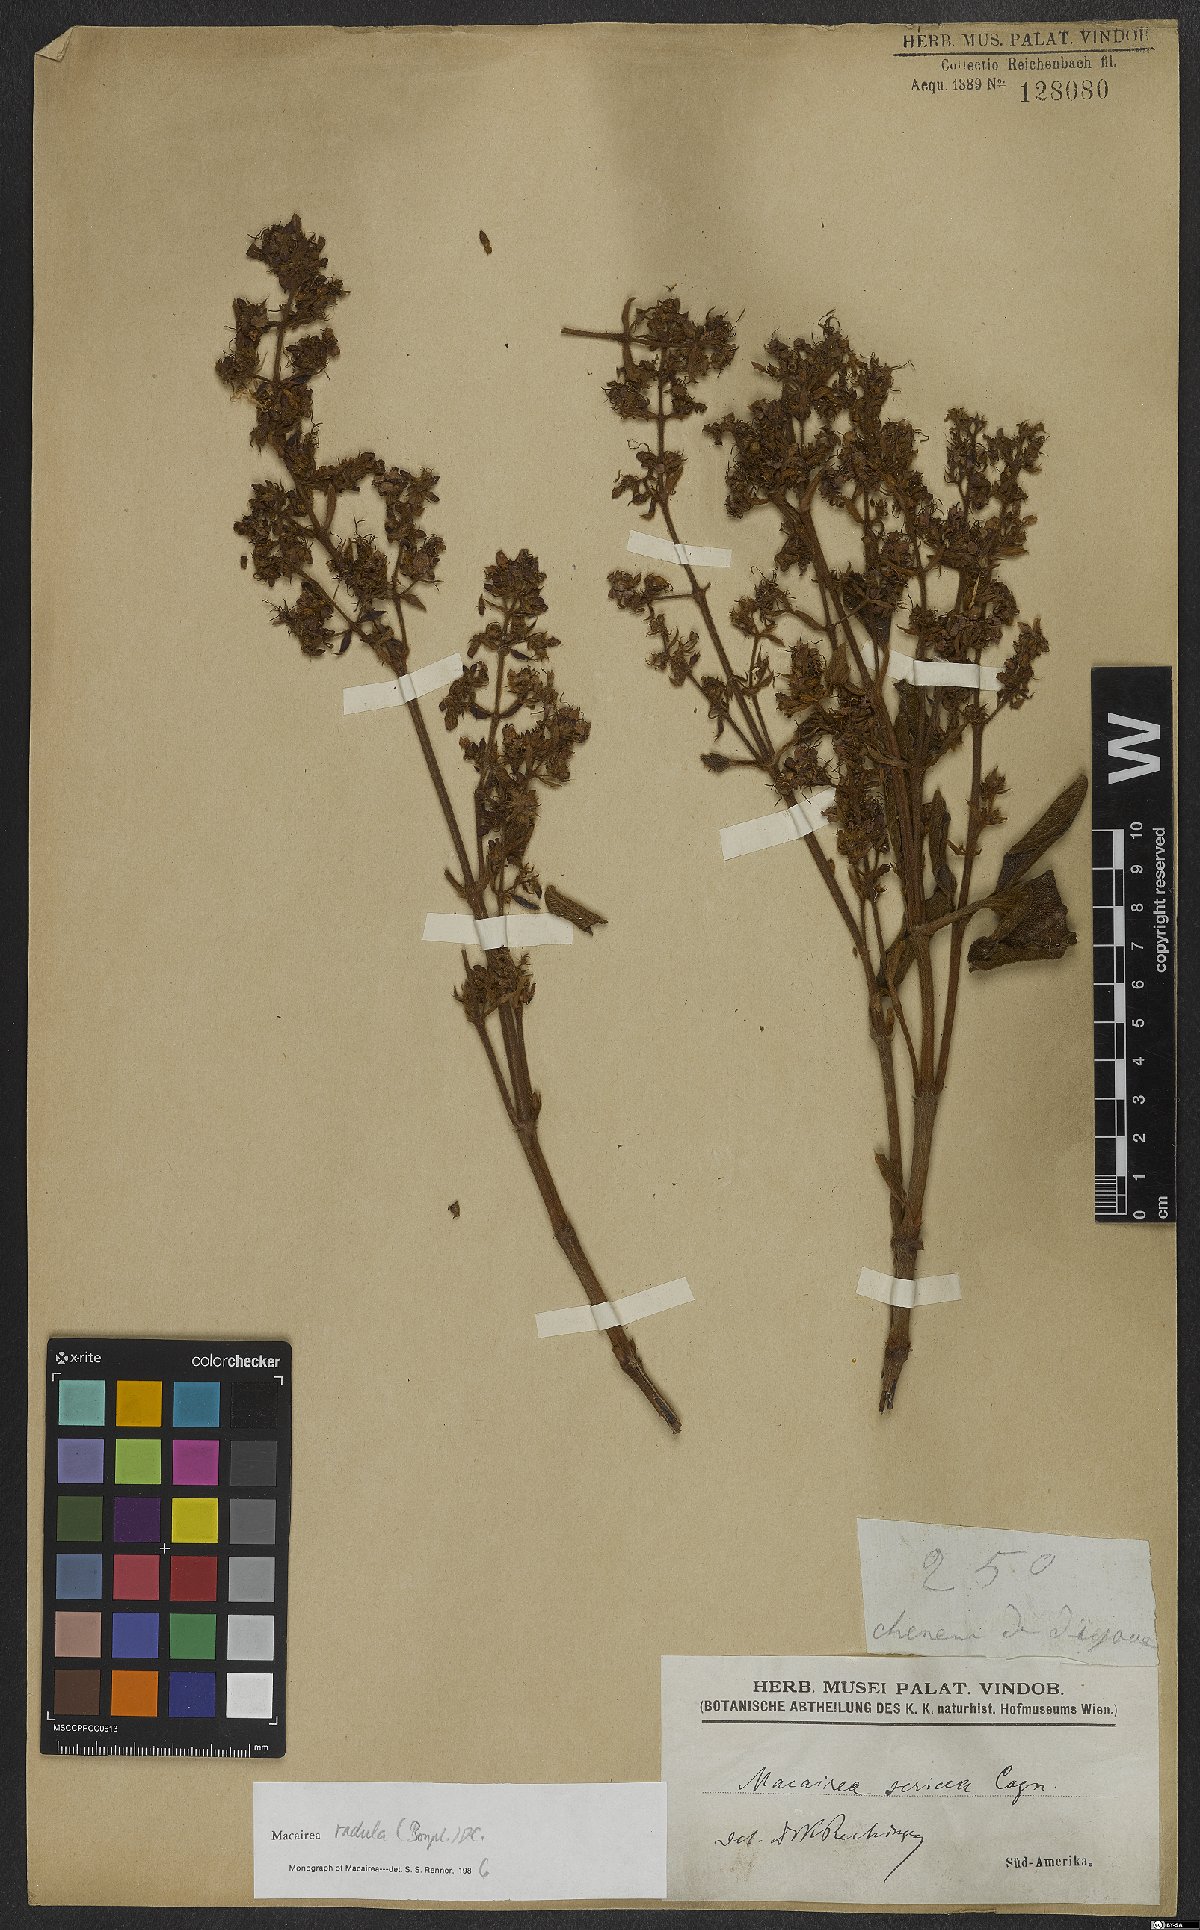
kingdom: Plantae
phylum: Tracheophyta
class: Magnoliopsida
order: Myrtales
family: Melastomataceae
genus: Macairea
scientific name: Macairea radula
